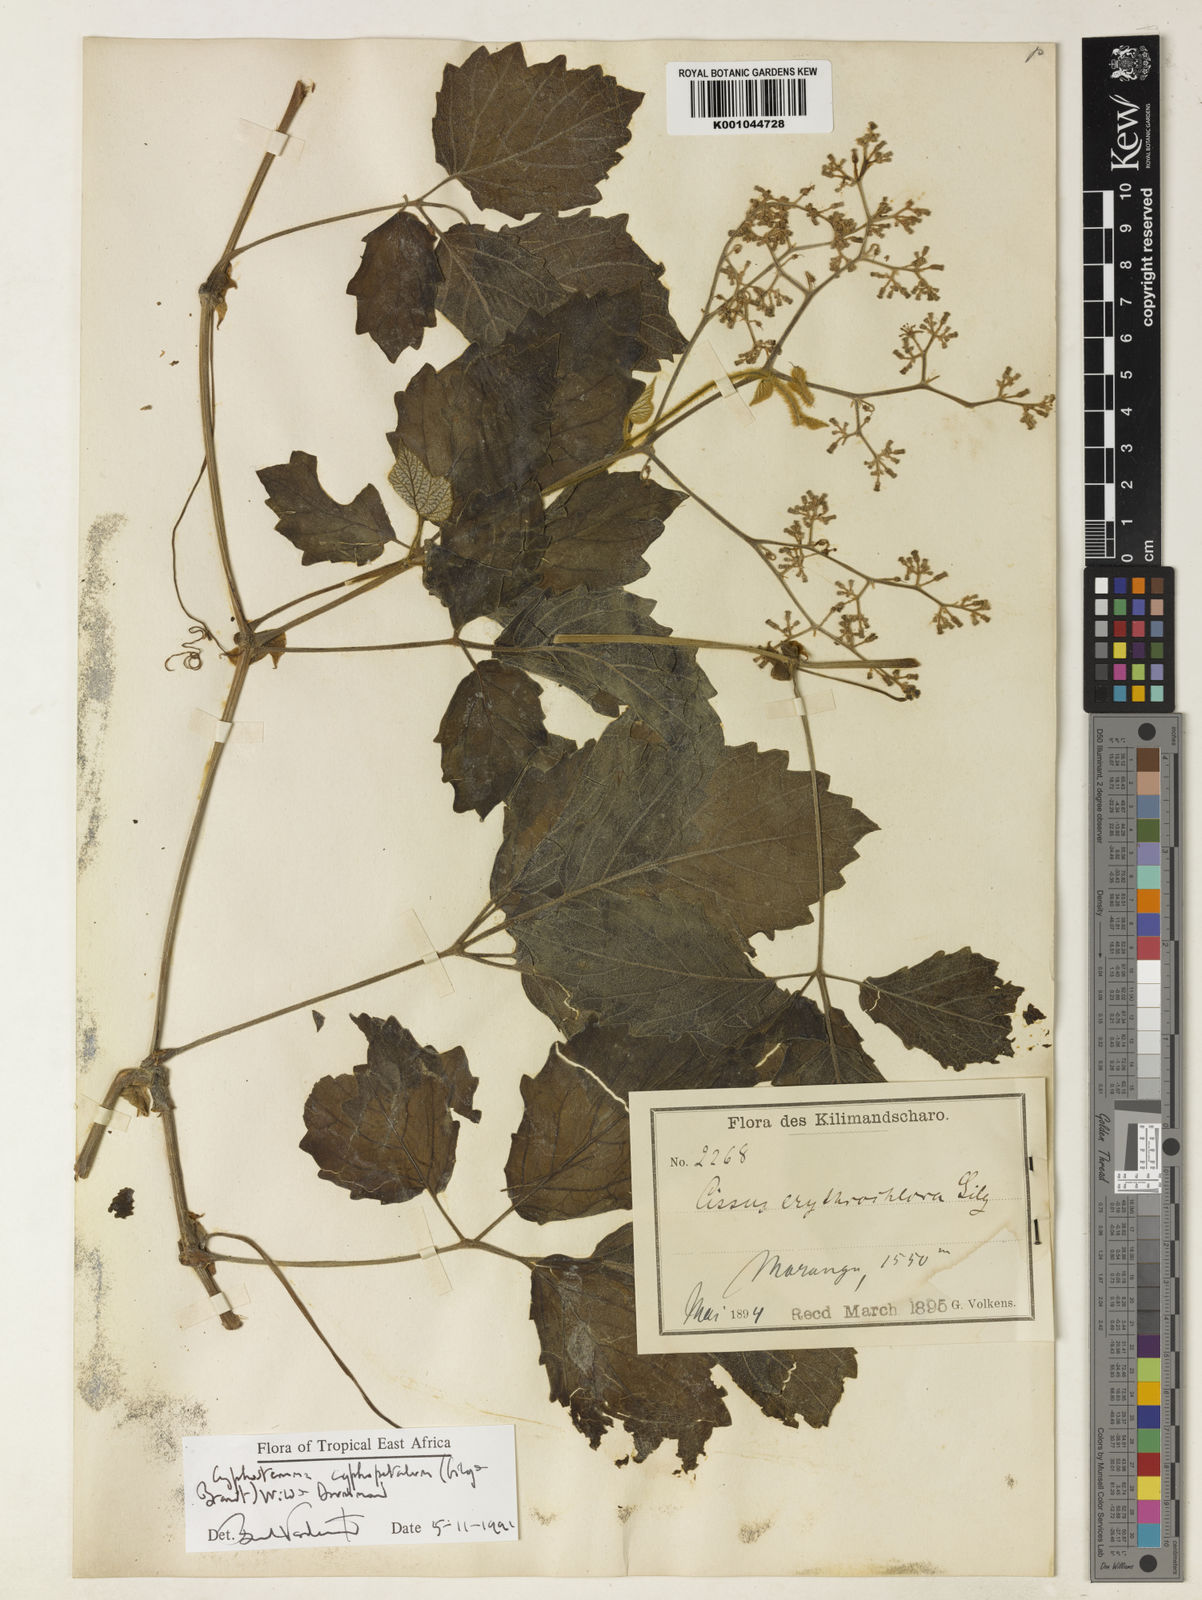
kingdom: Plantae
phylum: Tracheophyta
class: Magnoliopsida
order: Vitales
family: Vitaceae
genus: Cyphostemma
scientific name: Cyphostemma cyphopetalum
